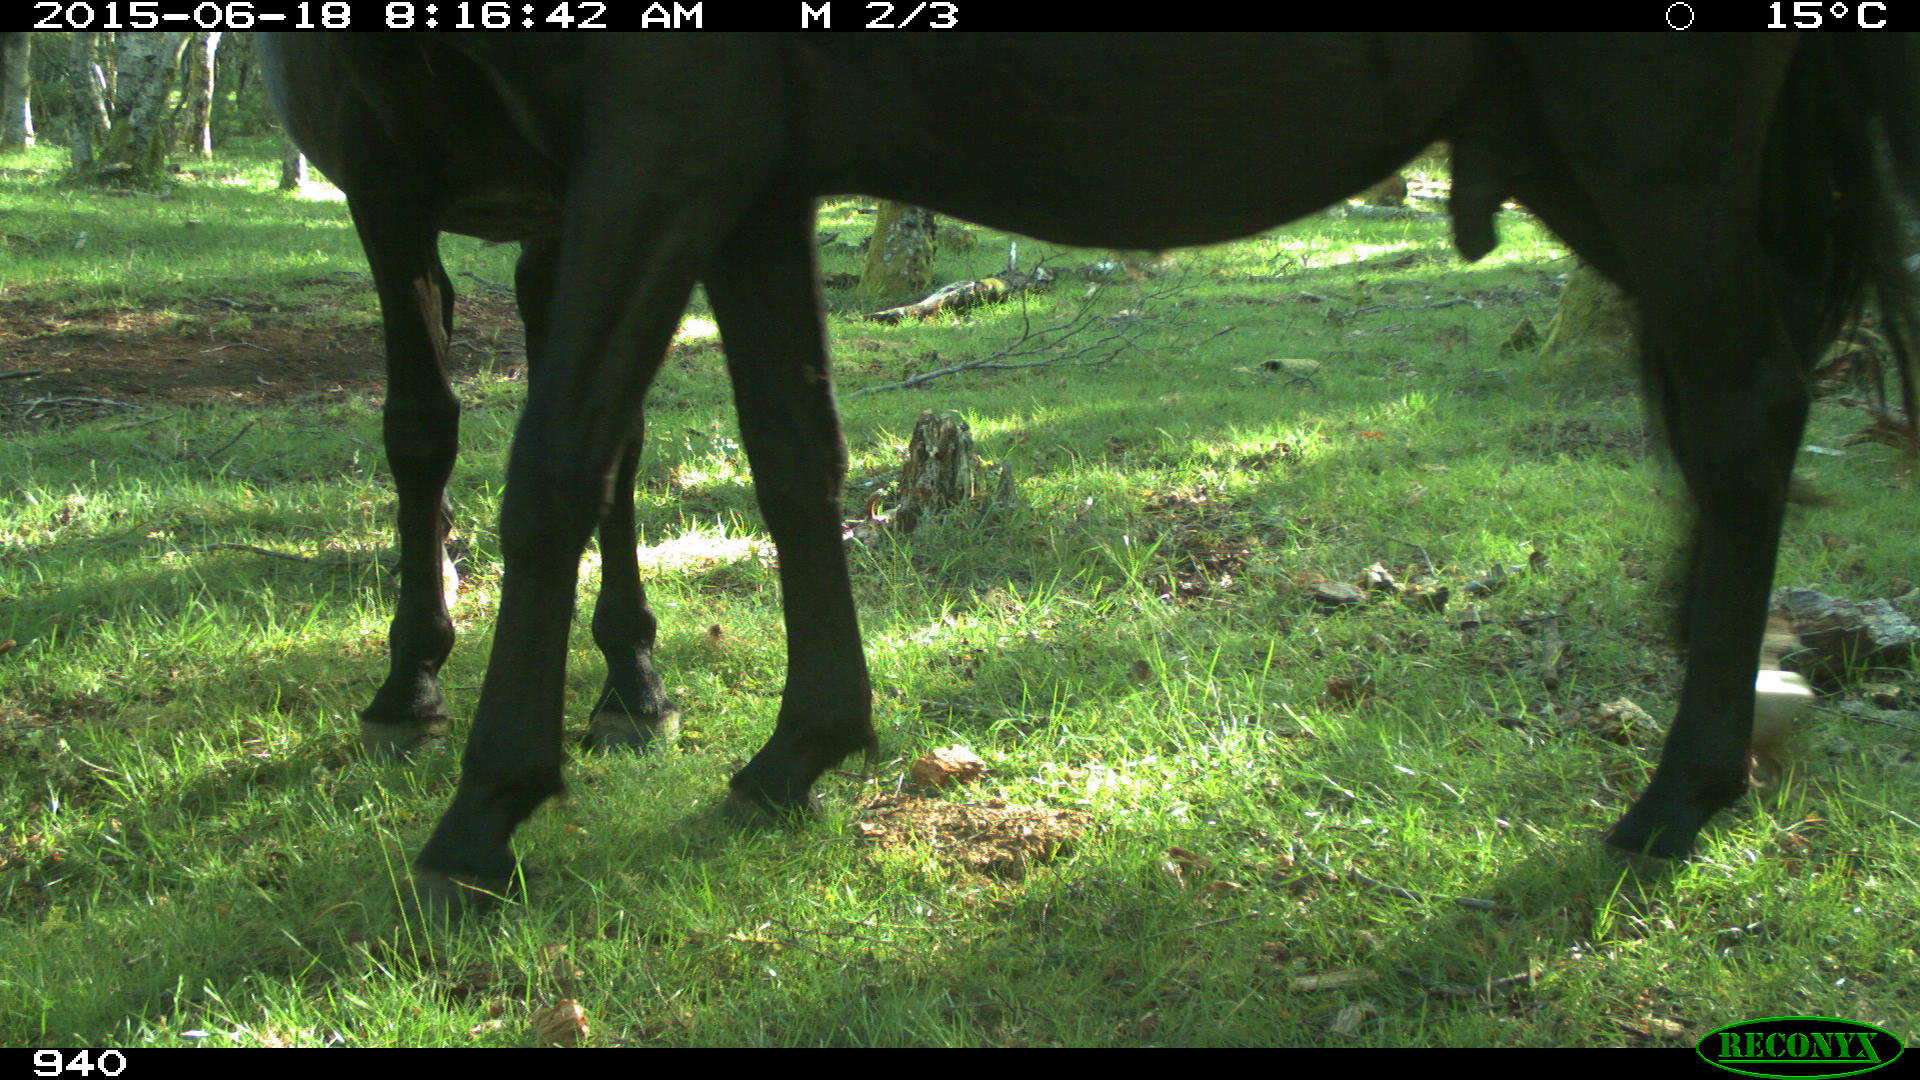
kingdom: Animalia
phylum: Chordata
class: Mammalia
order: Perissodactyla
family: Equidae
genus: Equus
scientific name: Equus caballus
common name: Horse
